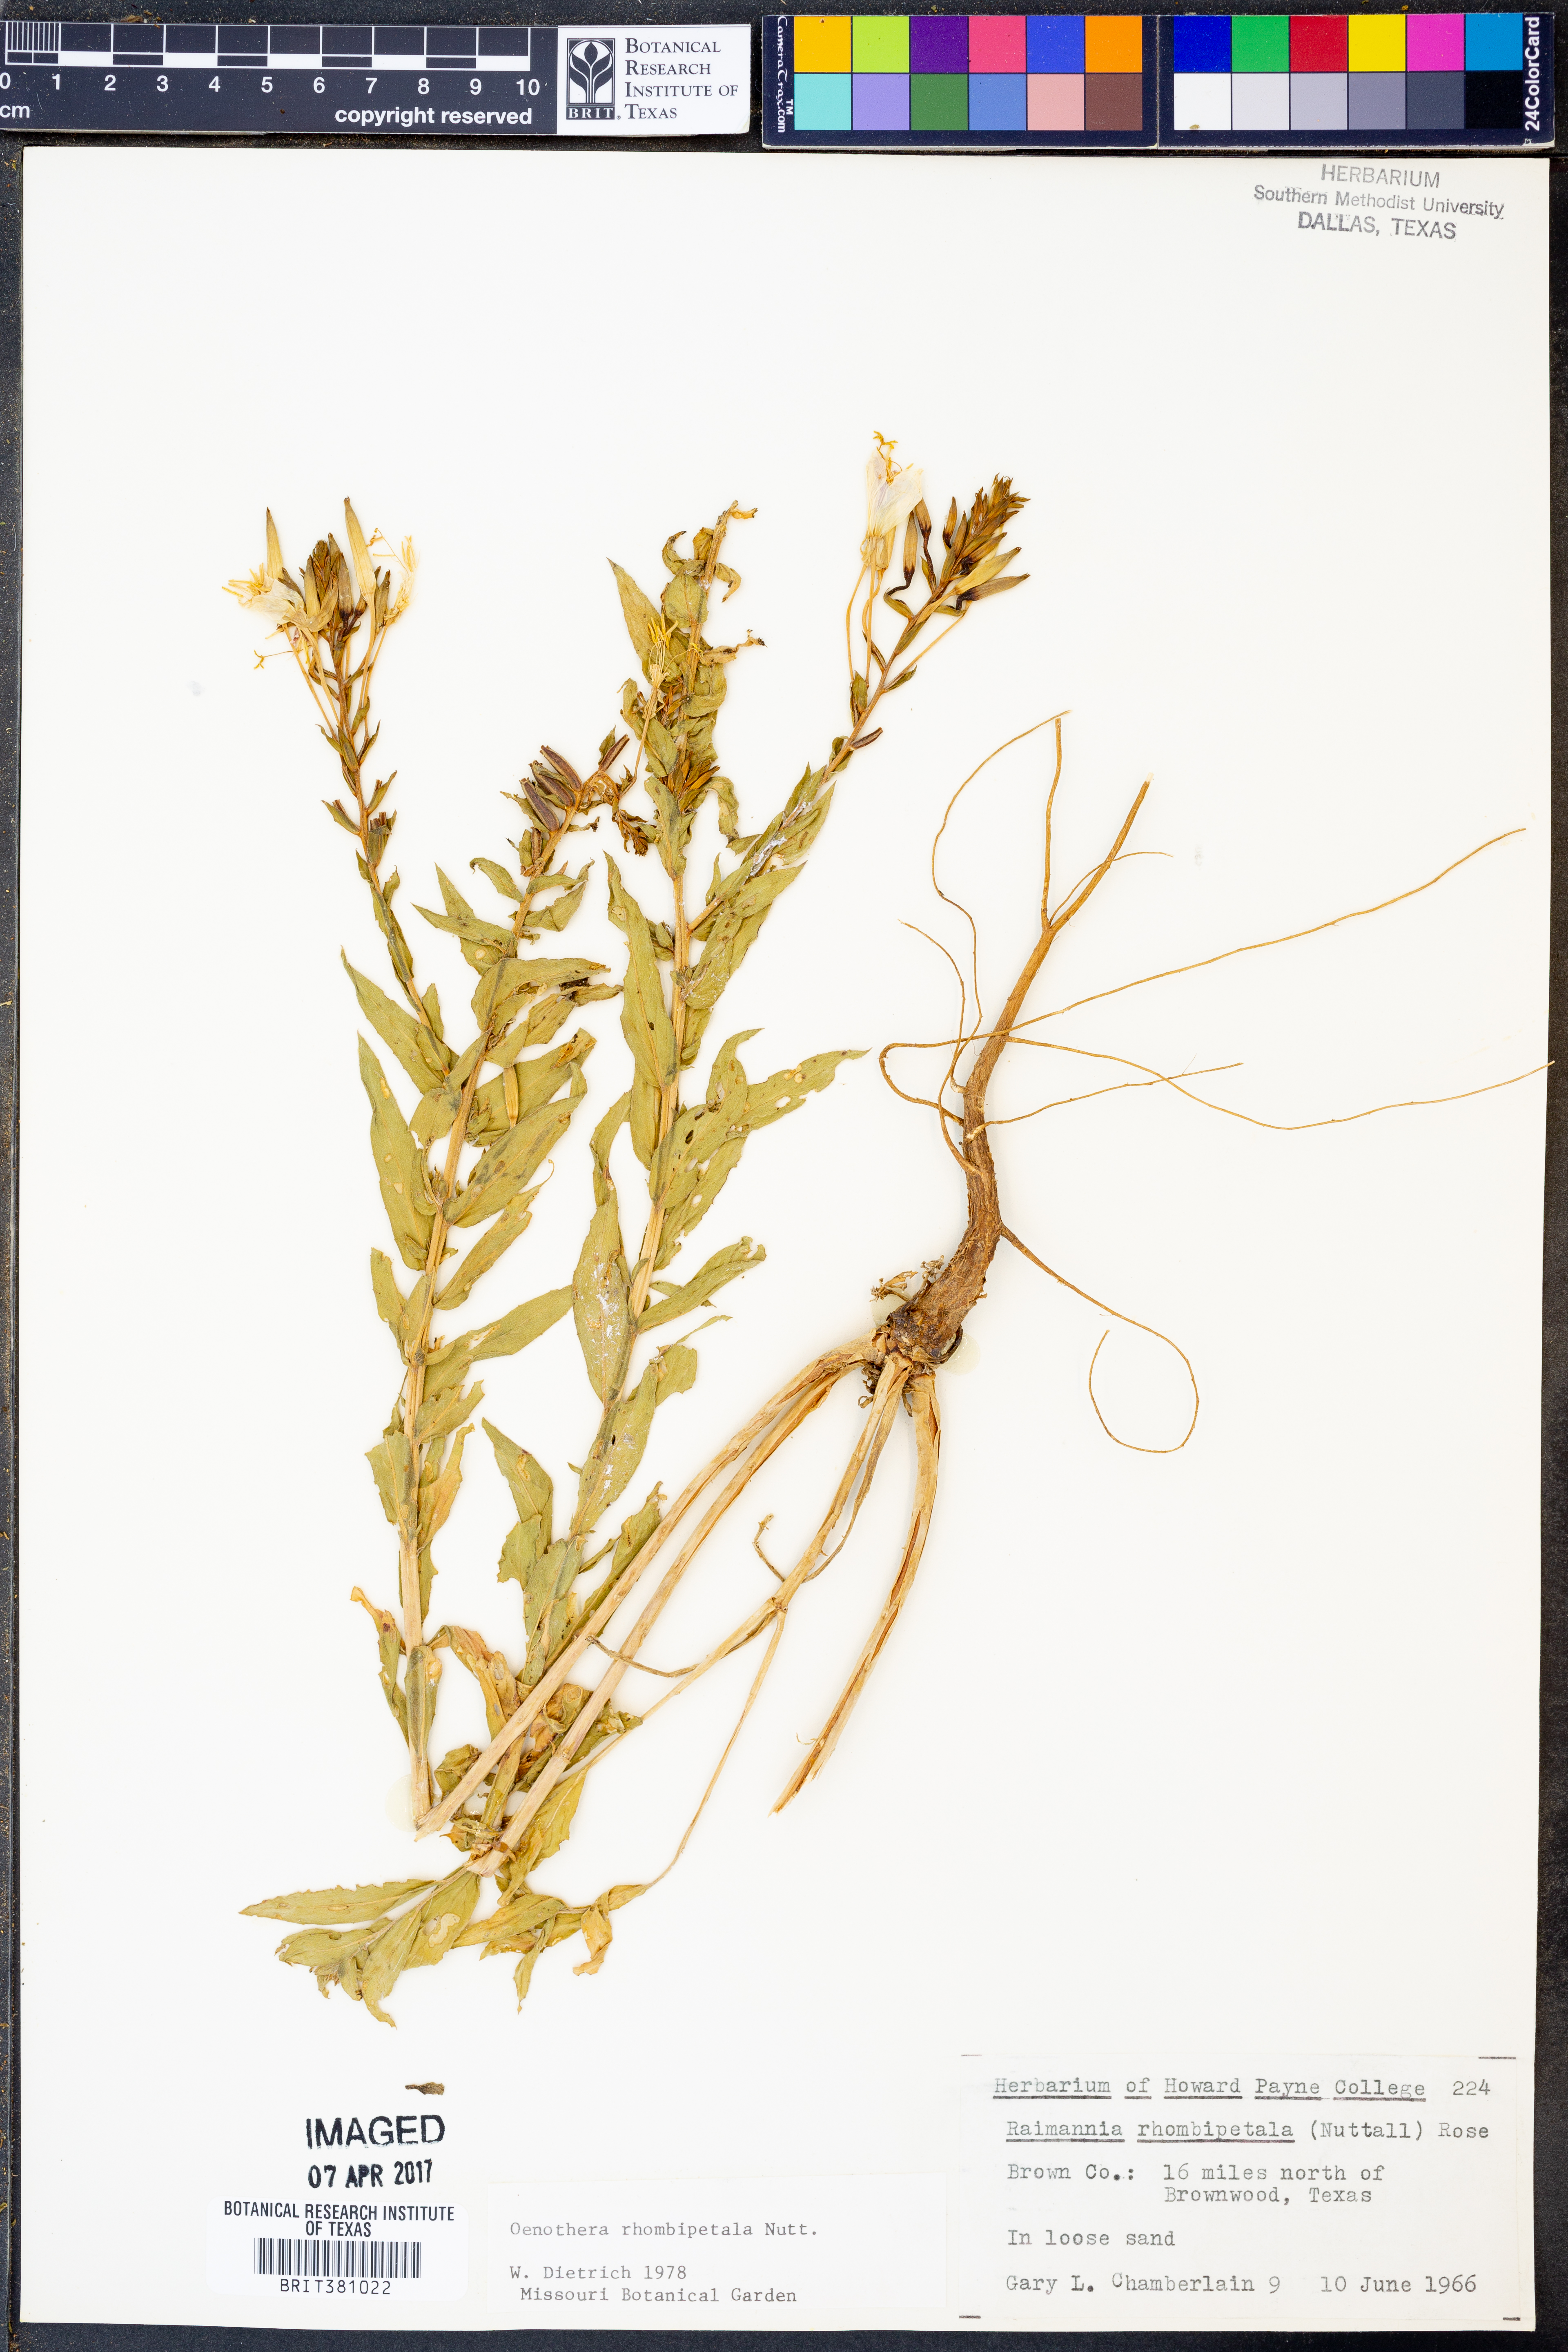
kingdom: Plantae
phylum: Tracheophyta
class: Magnoliopsida
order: Myrtales
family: Onagraceae
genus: Oenothera
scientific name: Oenothera rhombipetala
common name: Four-points evening-primrose
